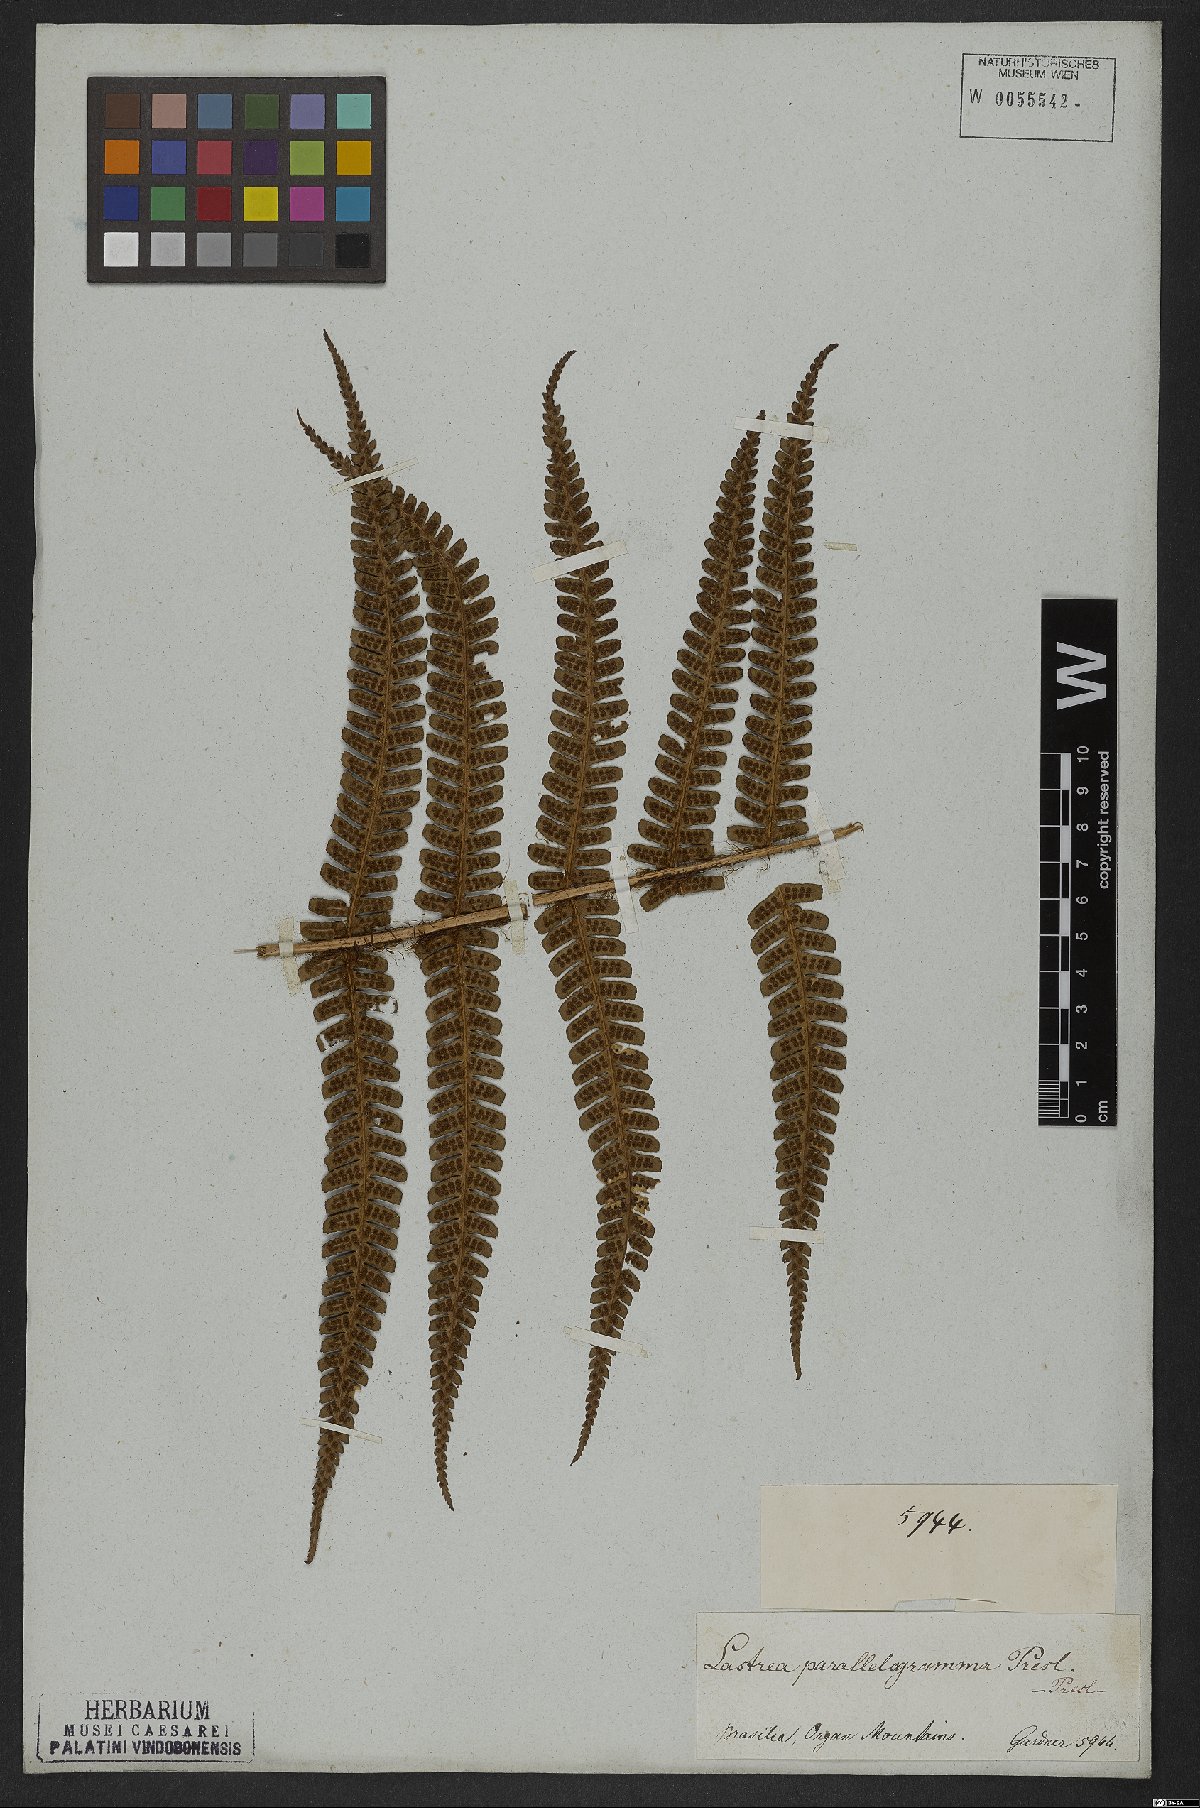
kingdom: Plantae
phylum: Tracheophyta
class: Polypodiopsida
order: Polypodiales
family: Dryopteridaceae
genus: Dryopteris
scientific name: Dryopteris wallichiana
